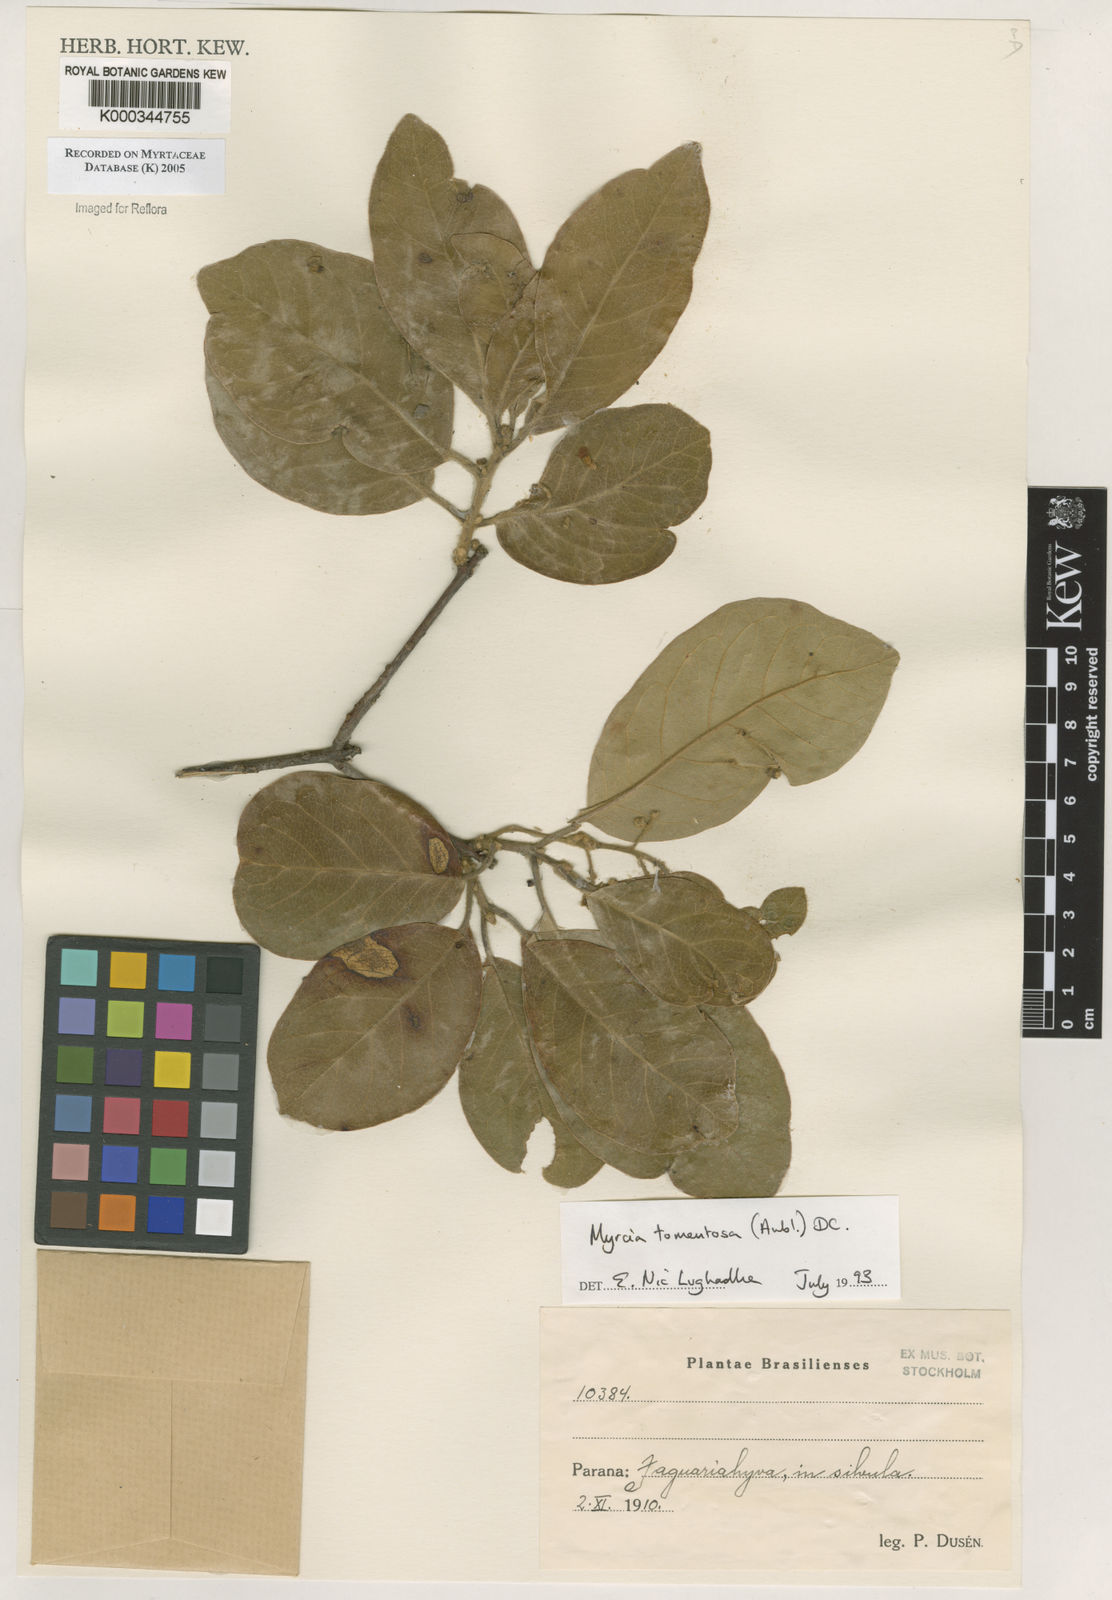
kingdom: Plantae
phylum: Tracheophyta
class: Magnoliopsida
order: Myrtales
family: Myrtaceae
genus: Myrcia
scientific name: Myrcia tomentosa
